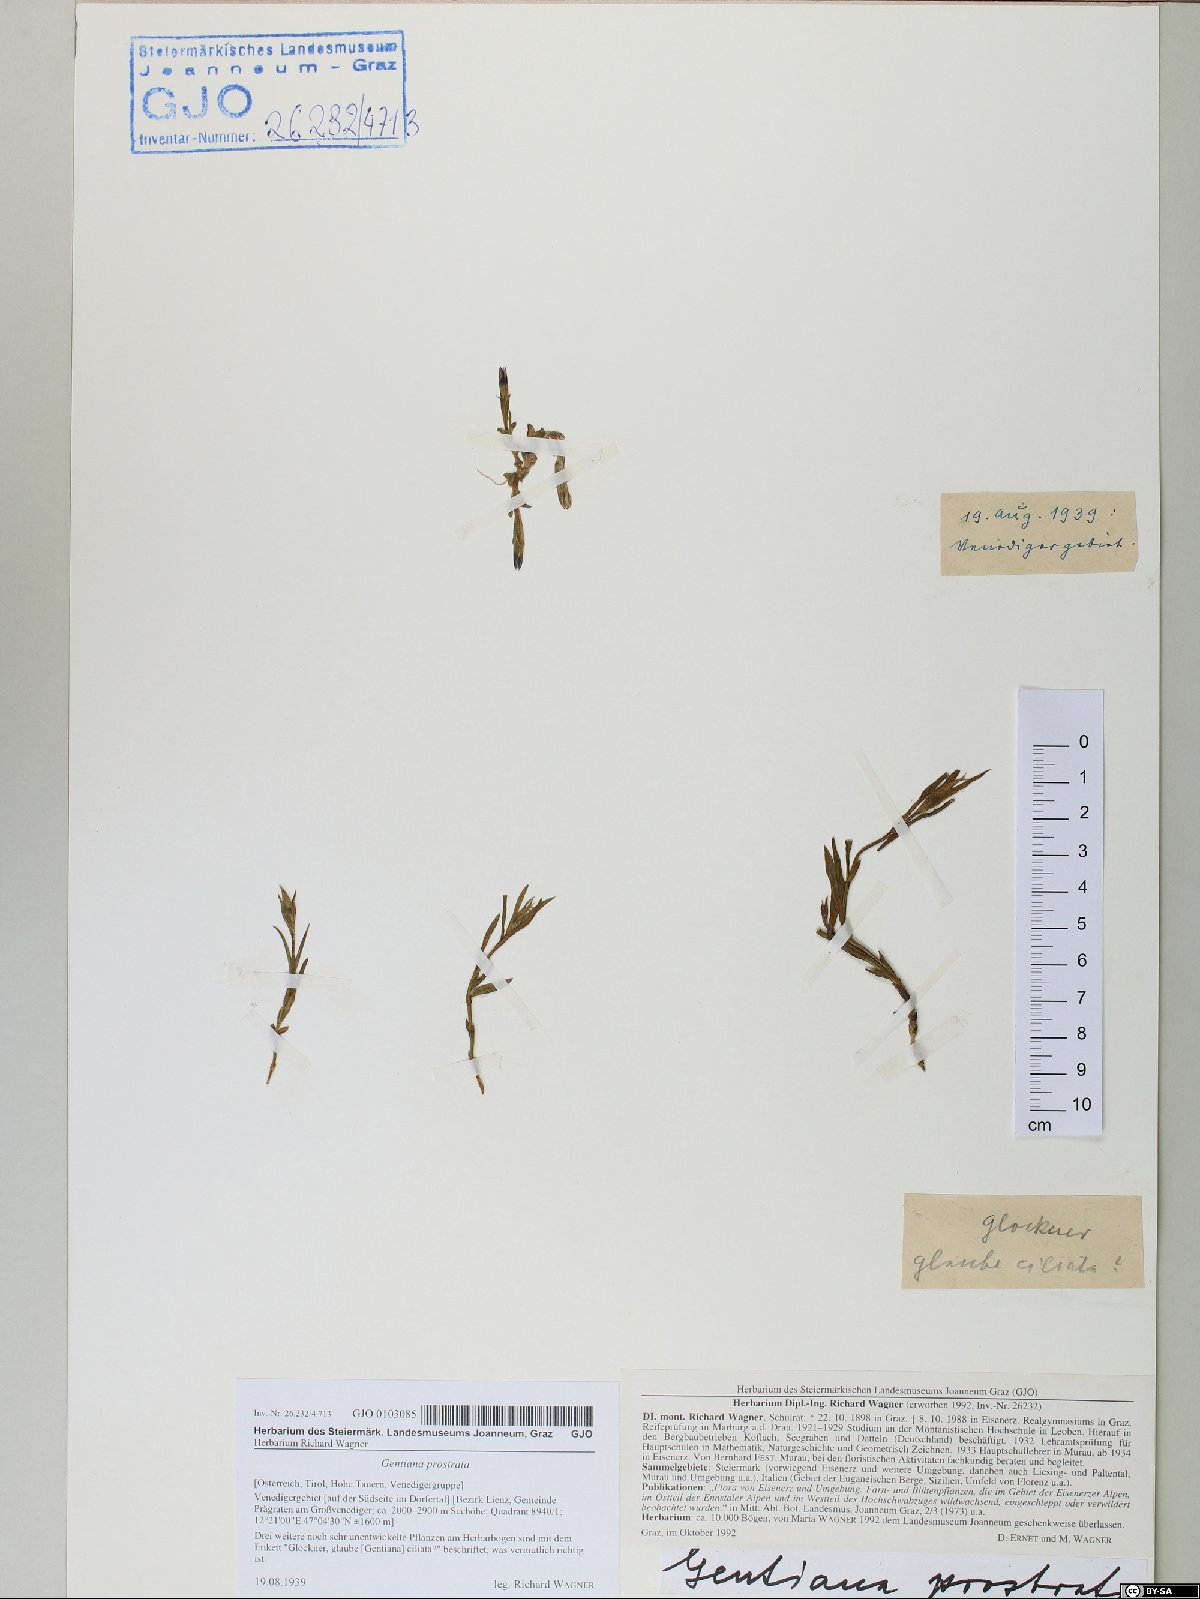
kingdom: Plantae
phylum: Tracheophyta
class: Magnoliopsida
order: Gentianales
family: Gentianaceae
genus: Gentiana
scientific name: Gentiana prostrata
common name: Moss gentian
